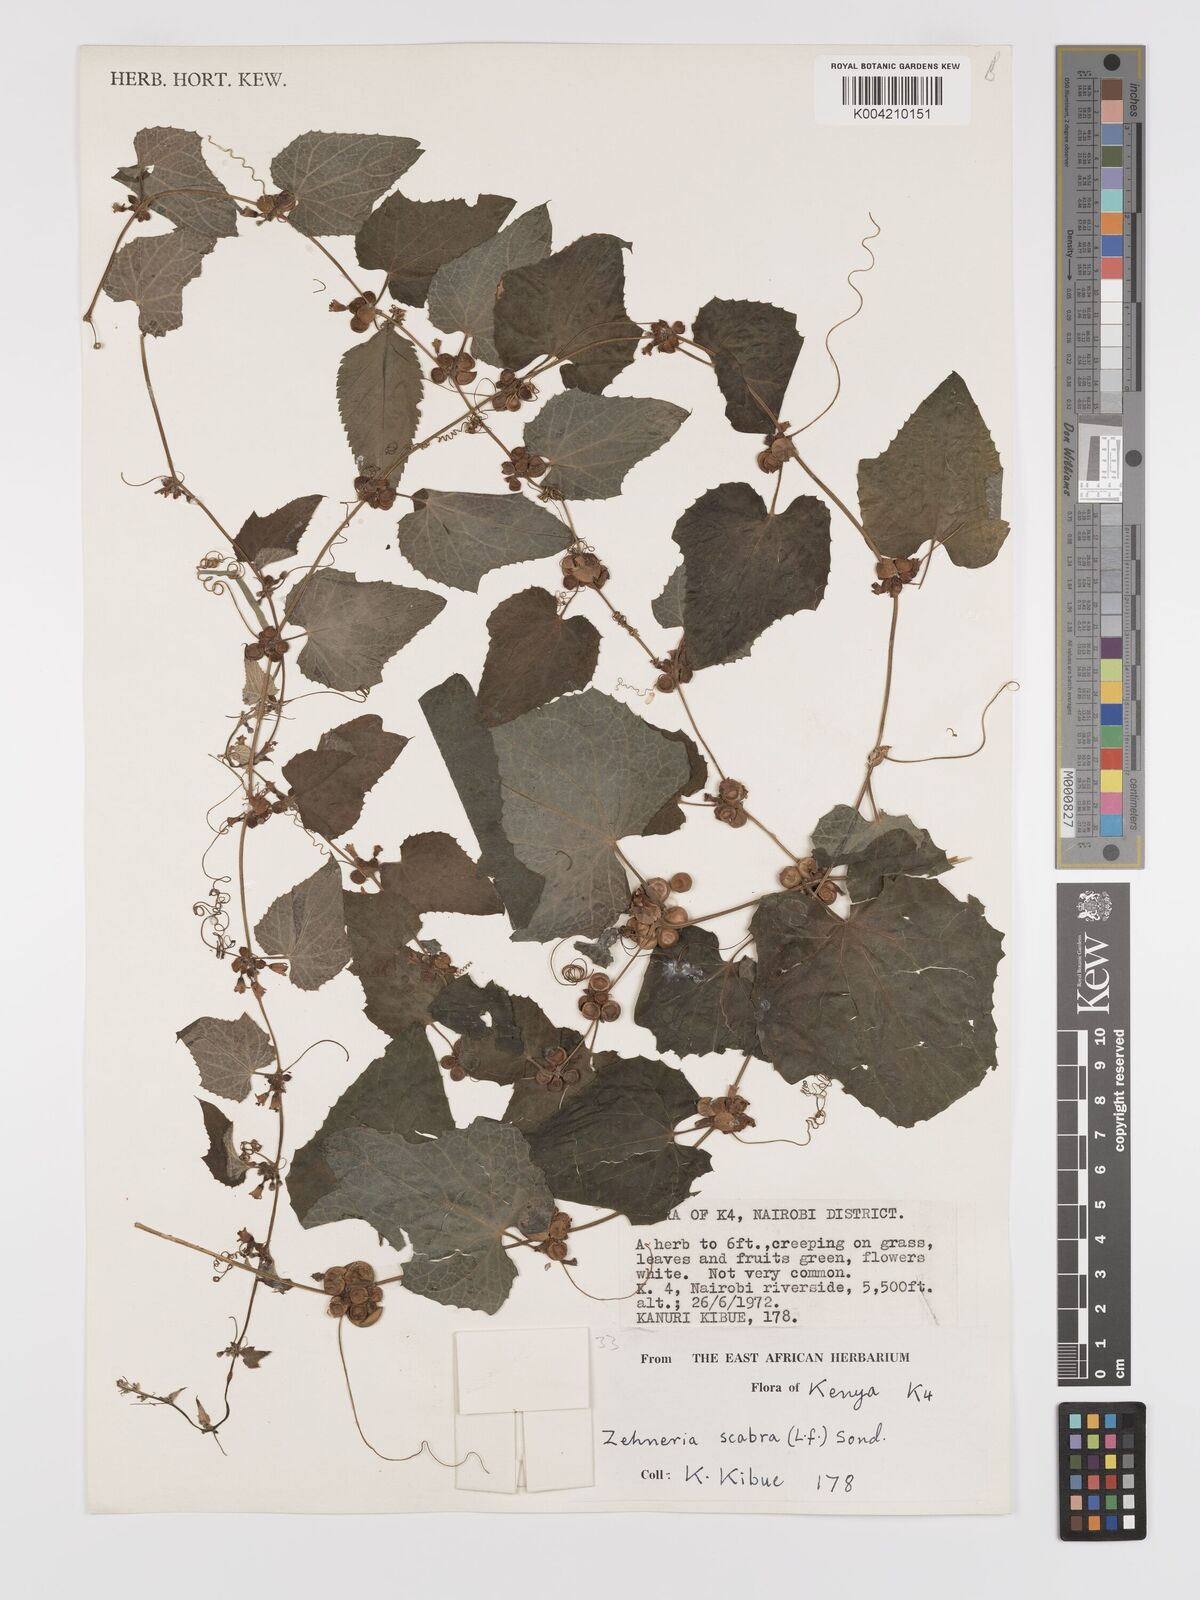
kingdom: Plantae
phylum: Tracheophyta
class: Magnoliopsida
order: Cucurbitales
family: Cucurbitaceae
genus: Zehneria
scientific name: Zehneria scabra
